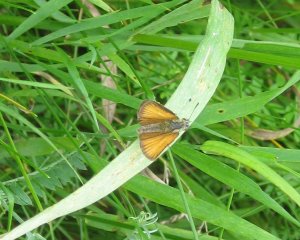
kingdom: Animalia
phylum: Arthropoda
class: Insecta
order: Lepidoptera
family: Hesperiidae
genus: Thymelicus
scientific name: Thymelicus lineola
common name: European Skipper
